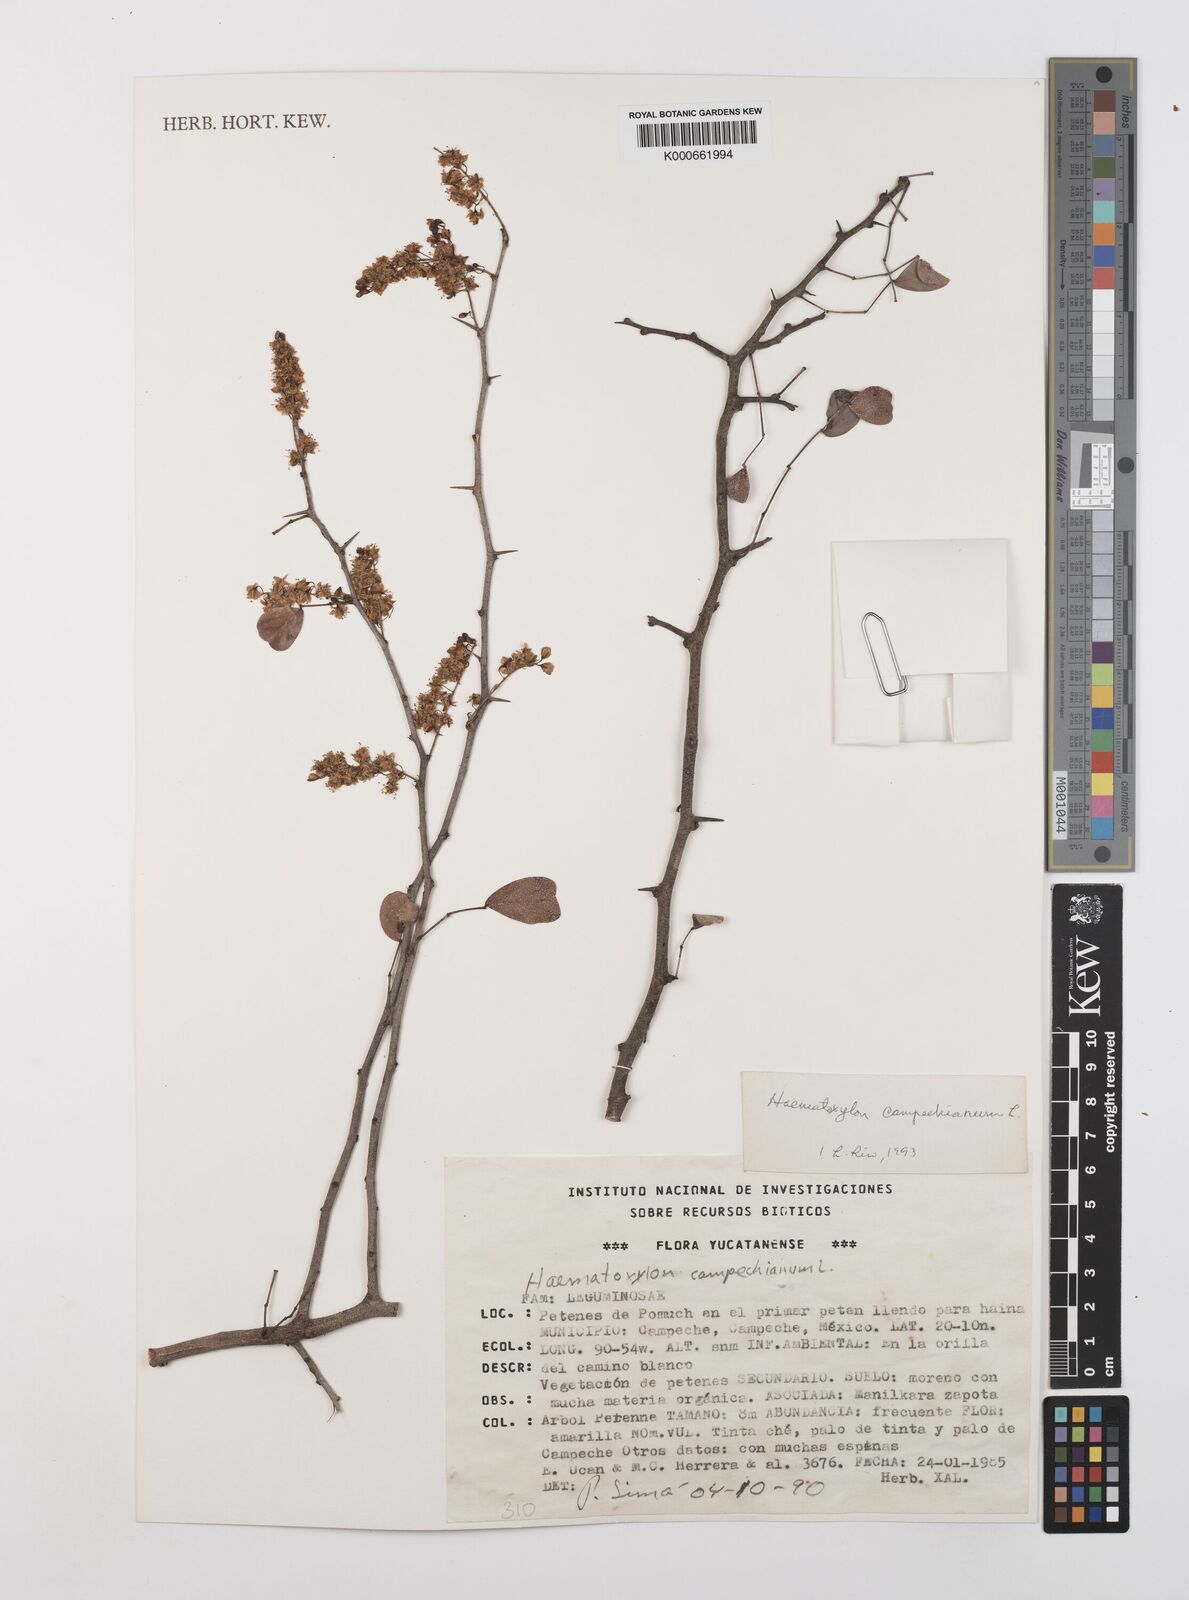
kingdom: Plantae
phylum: Tracheophyta
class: Magnoliopsida
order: Fabales
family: Fabaceae
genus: Haematoxylum
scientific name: Haematoxylum
